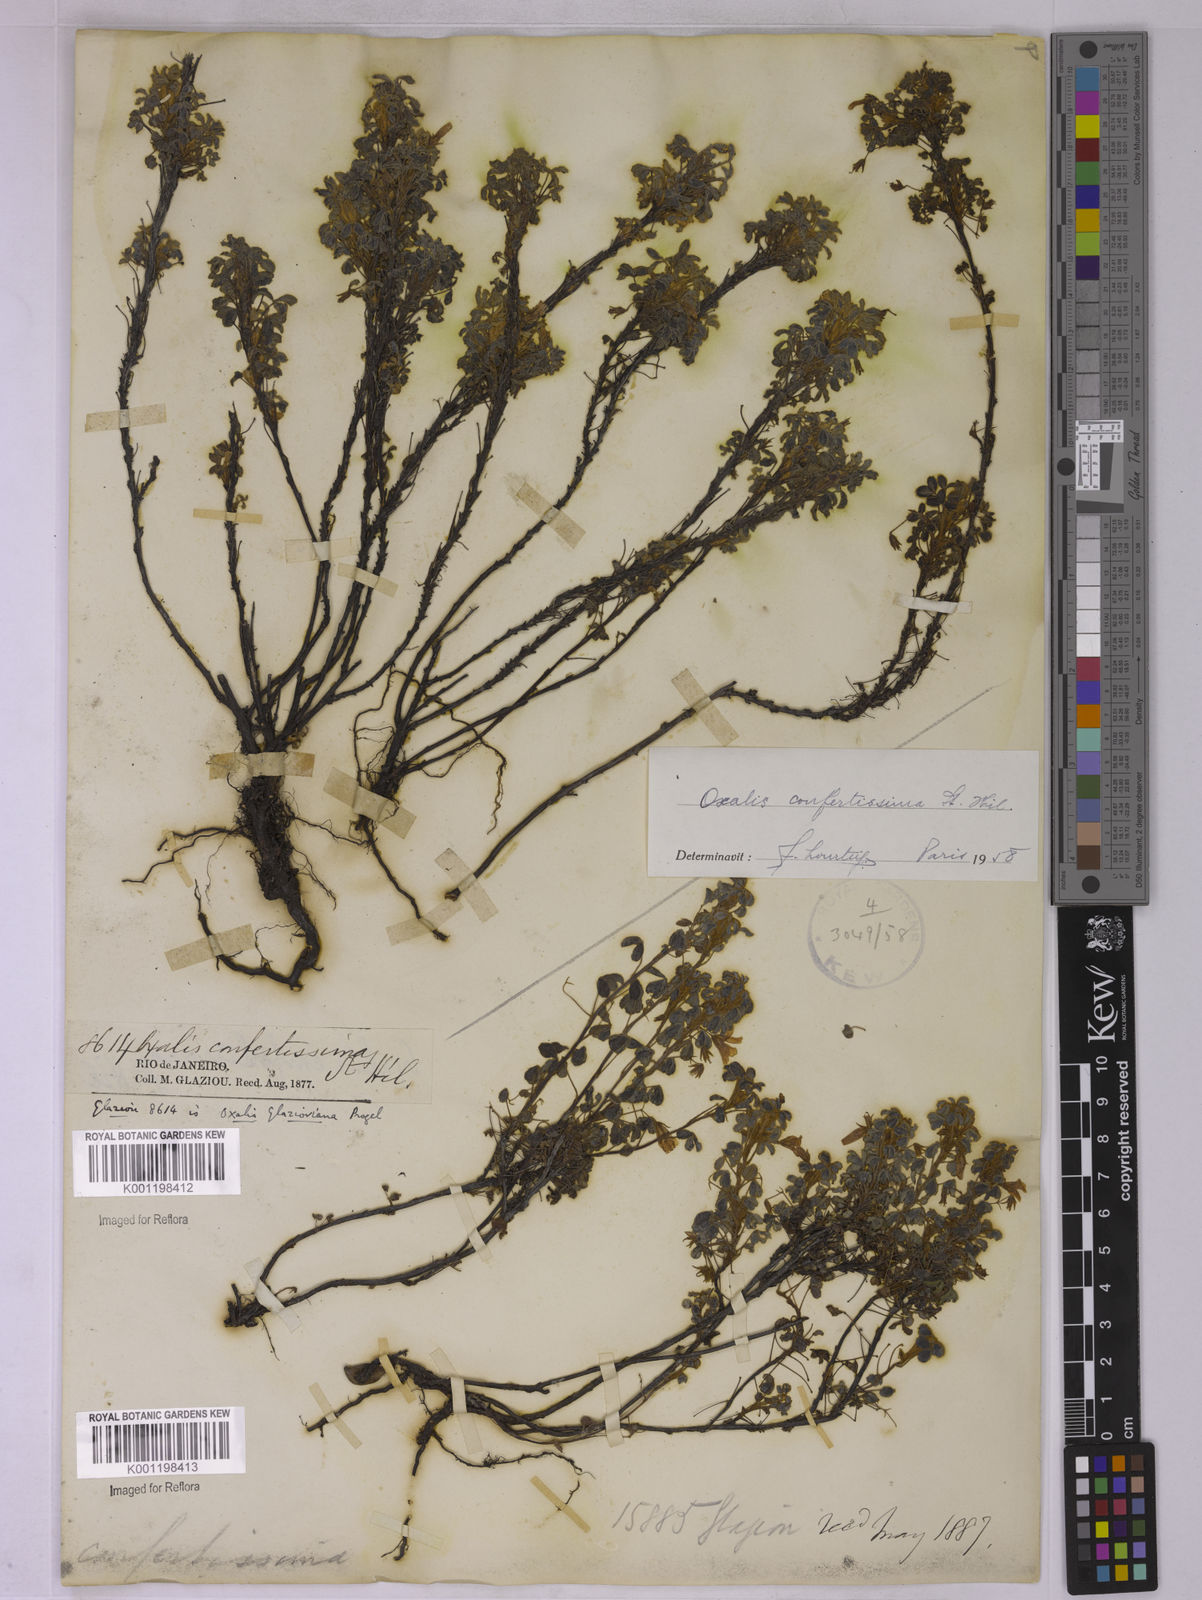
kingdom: Plantae
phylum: Tracheophyta
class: Magnoliopsida
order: Oxalidales
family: Oxalidaceae
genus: Oxalis
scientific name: Oxalis confertissima
